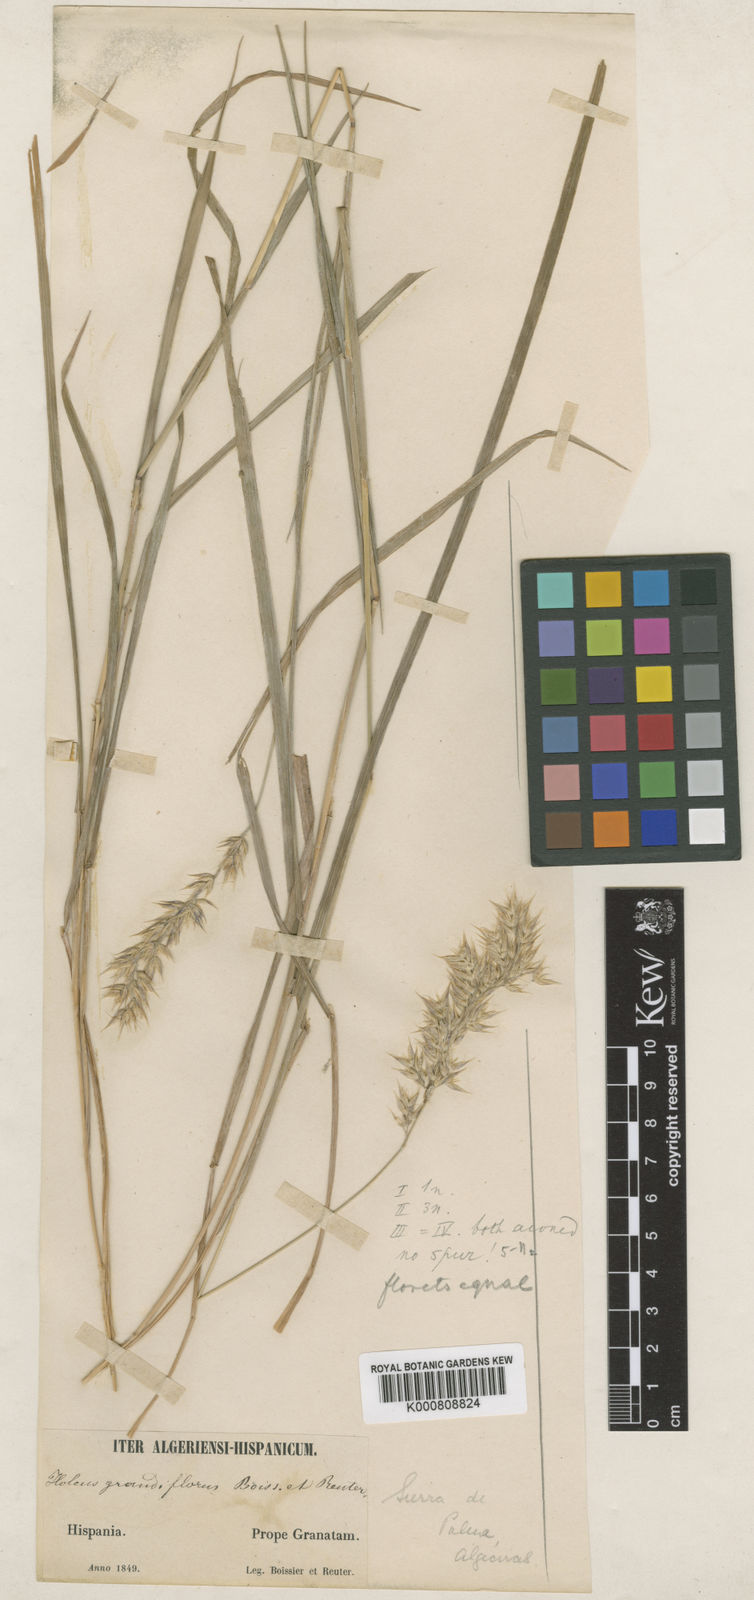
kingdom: Plantae
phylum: Tracheophyta
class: Liliopsida
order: Poales
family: Poaceae
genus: Holcus
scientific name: Holcus grandiflorus
